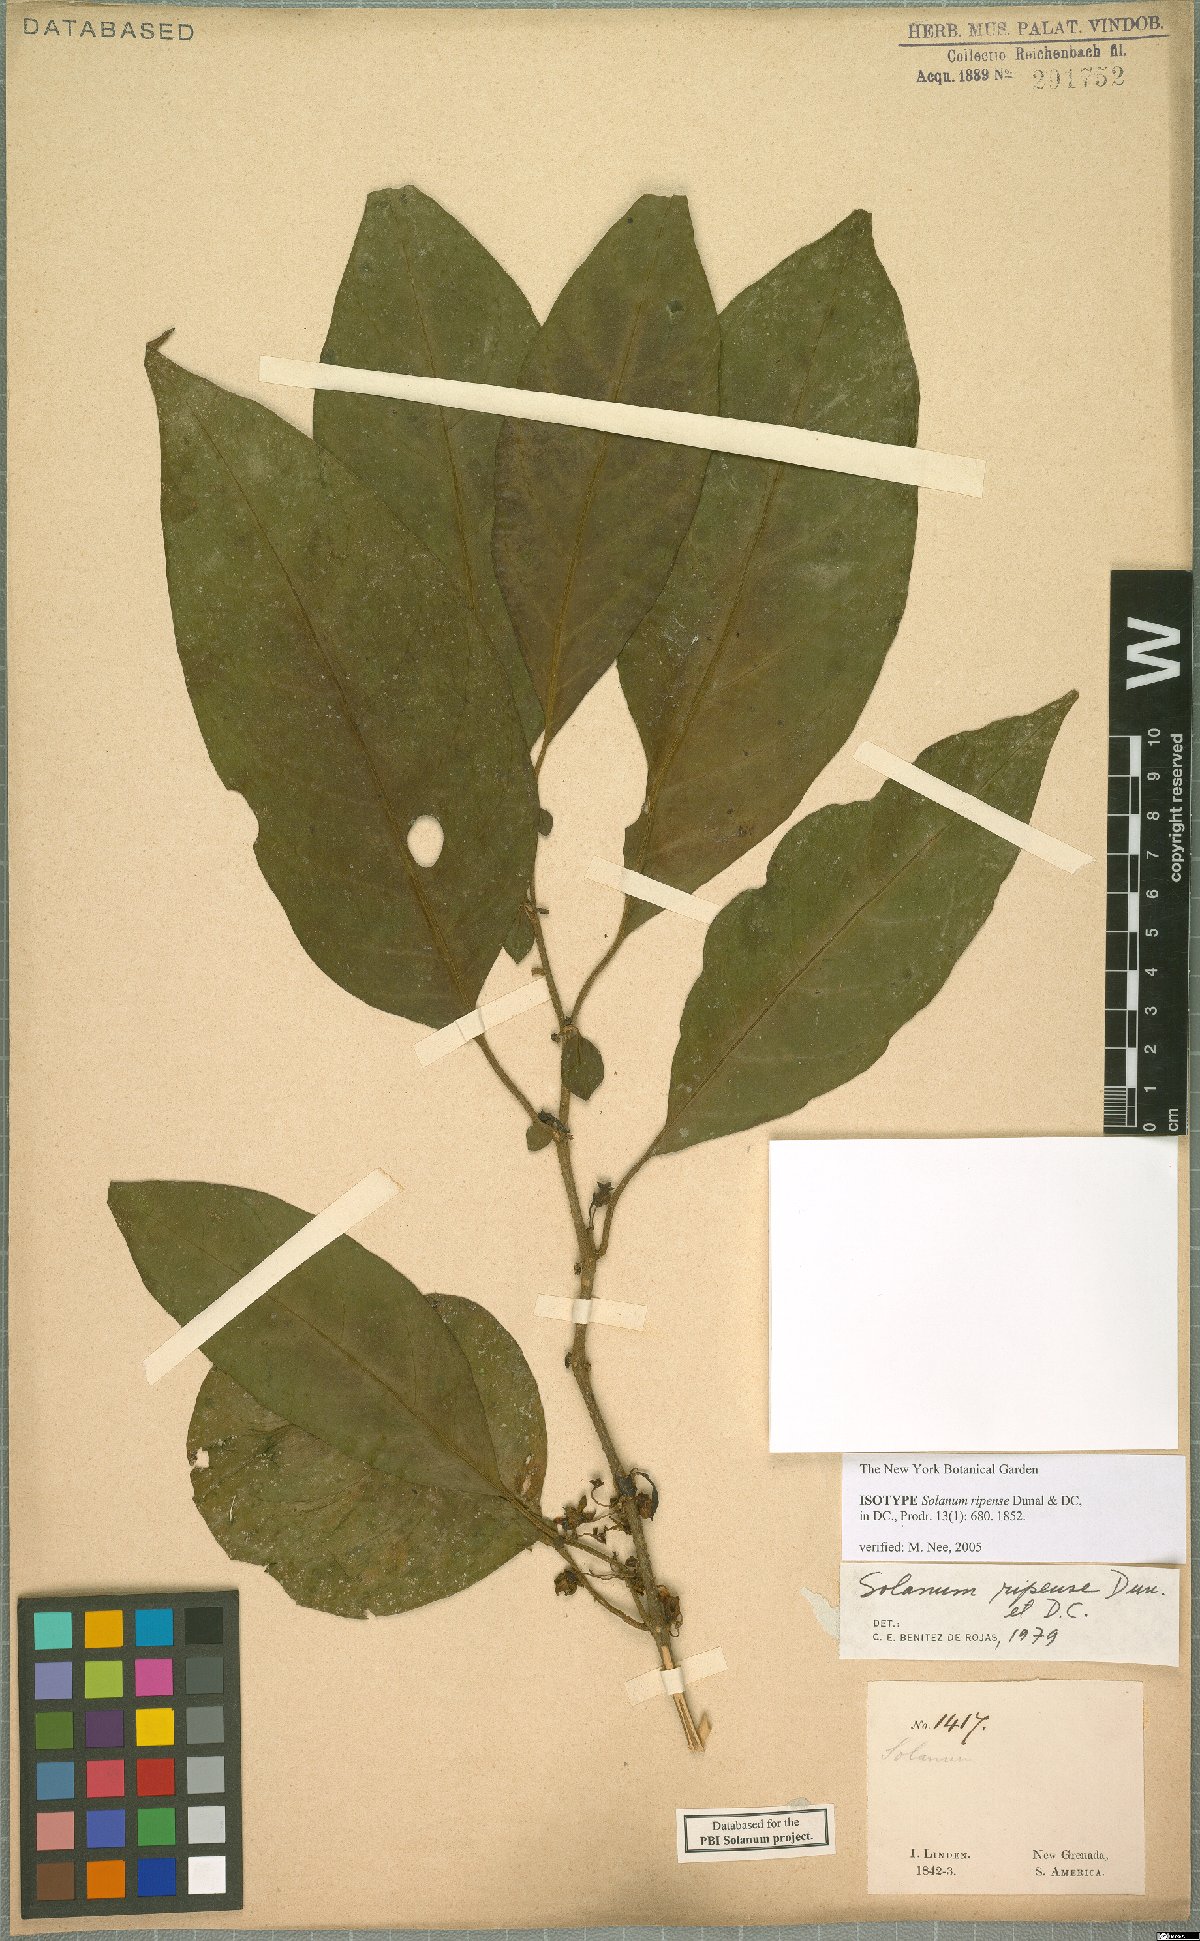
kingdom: Plantae
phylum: Tracheophyta
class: Magnoliopsida
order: Solanales
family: Solanaceae
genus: Solanum
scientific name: Solanum ripense
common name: Mérida nightshade
